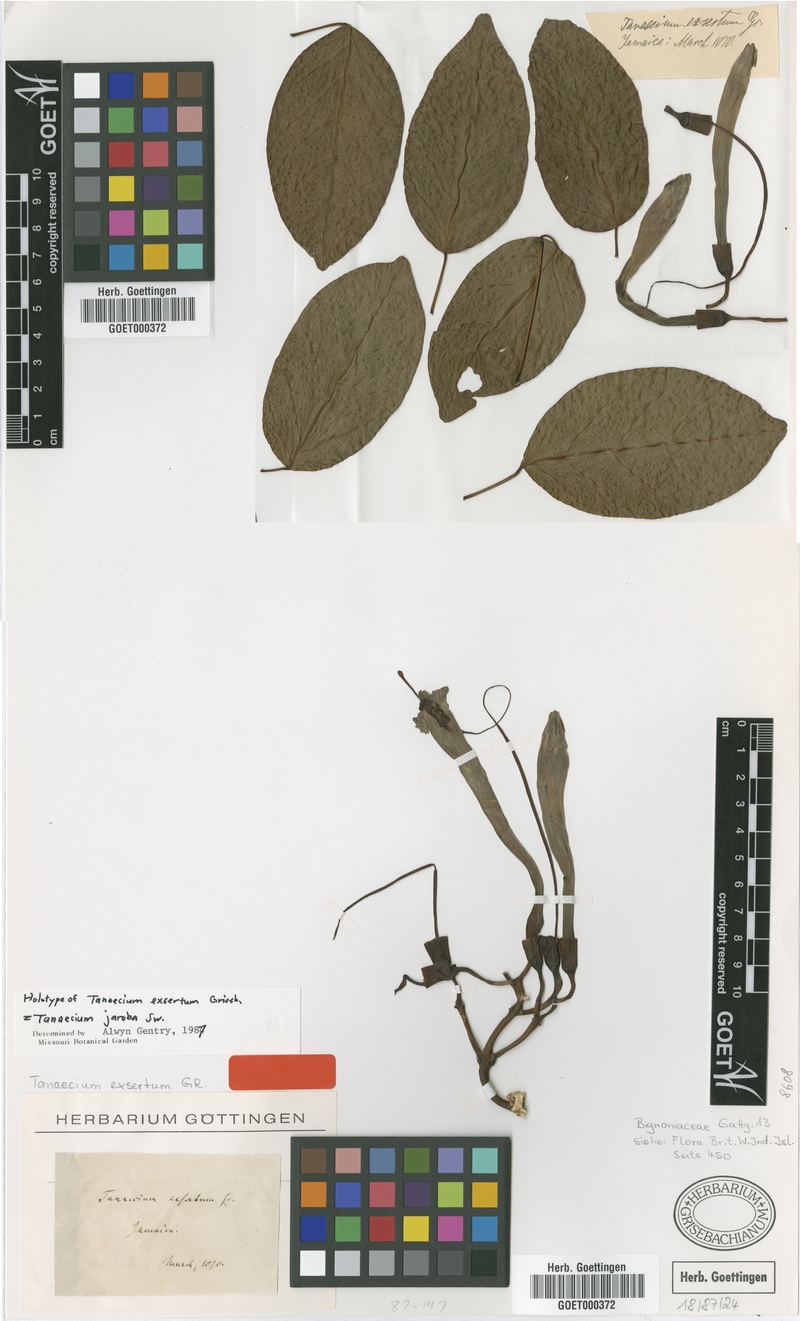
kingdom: Plantae
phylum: Tracheophyta
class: Magnoliopsida
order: Lamiales
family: Bignoniaceae
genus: Tanaecium
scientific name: Tanaecium jaroba
